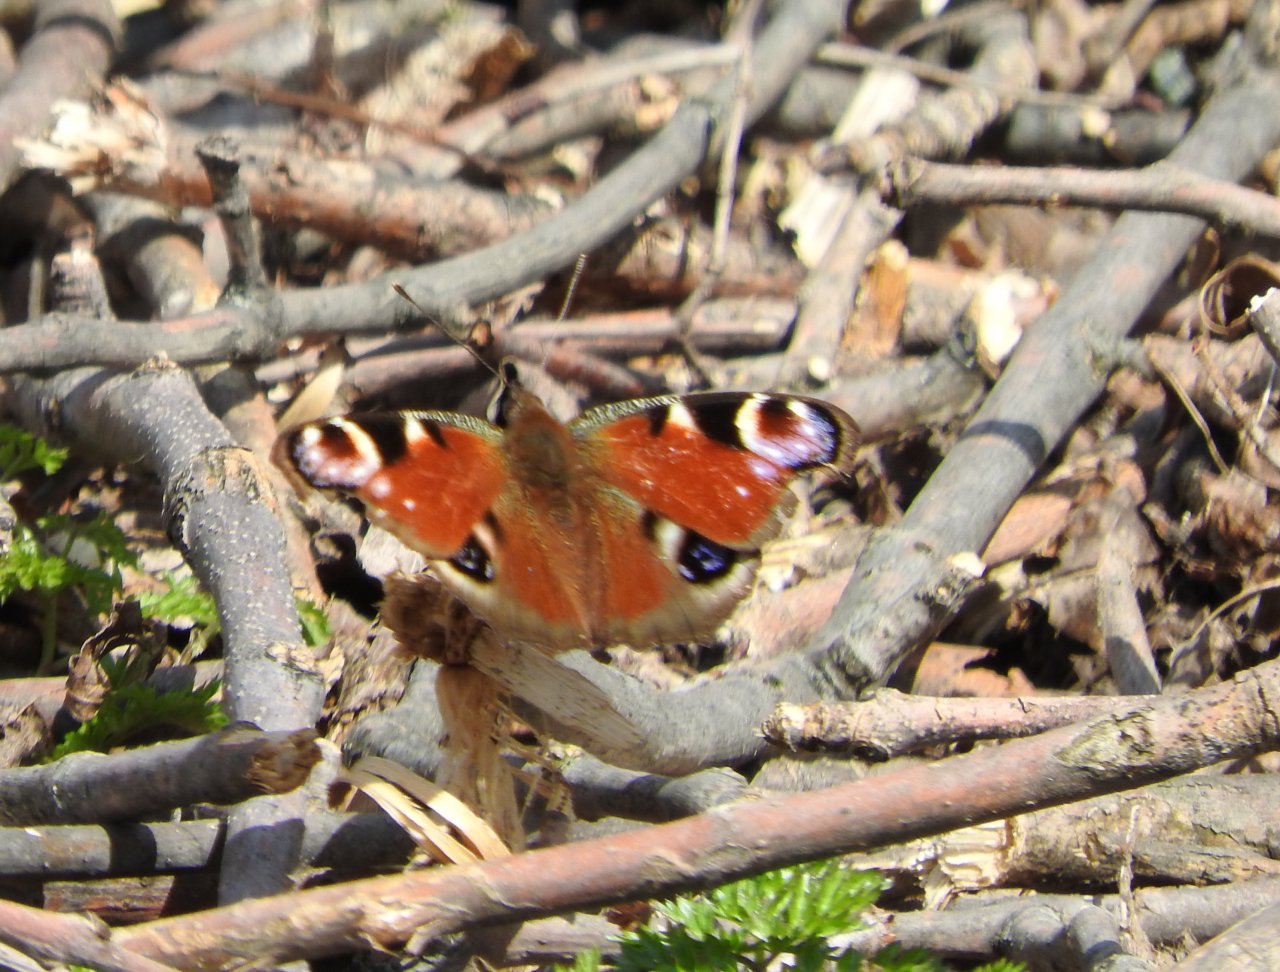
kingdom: Animalia
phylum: Arthropoda
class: Insecta
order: Lepidoptera
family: Nymphalidae
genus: Aglais
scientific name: Aglais io
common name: European Peacock
